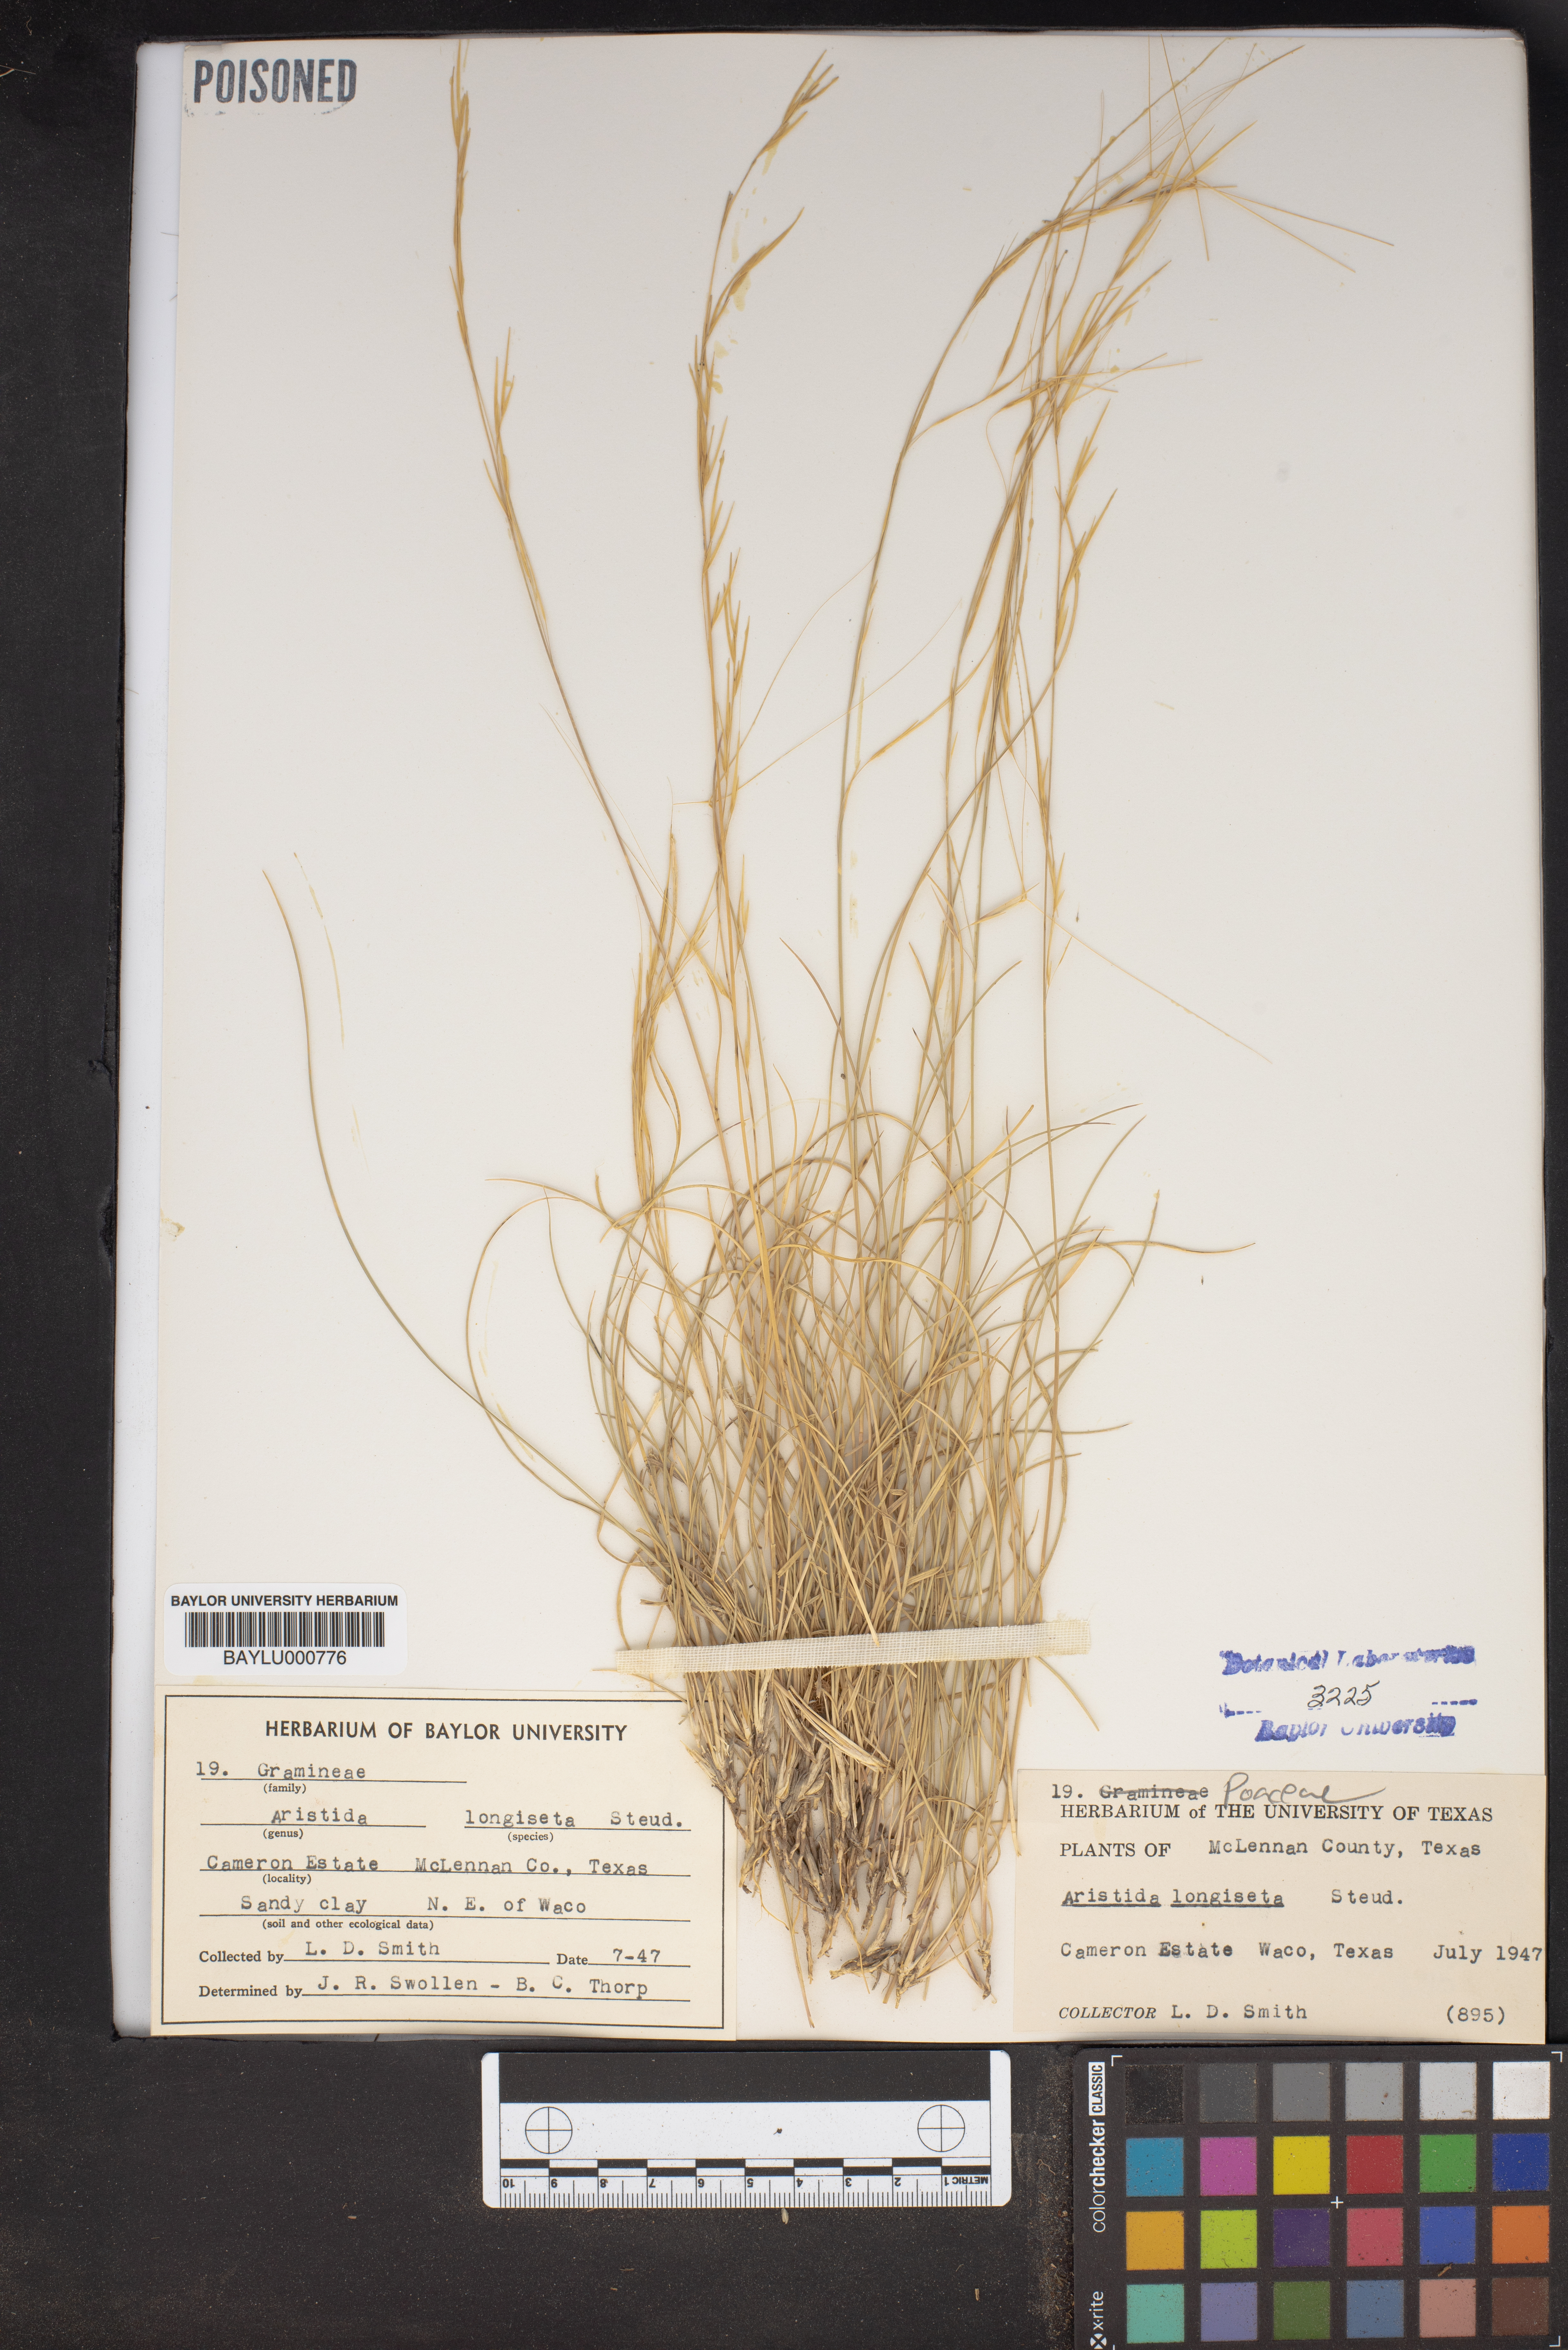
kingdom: Plantae
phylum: Tracheophyta
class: Liliopsida
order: Poales
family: Poaceae
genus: Aristida
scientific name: Aristida longiseta
